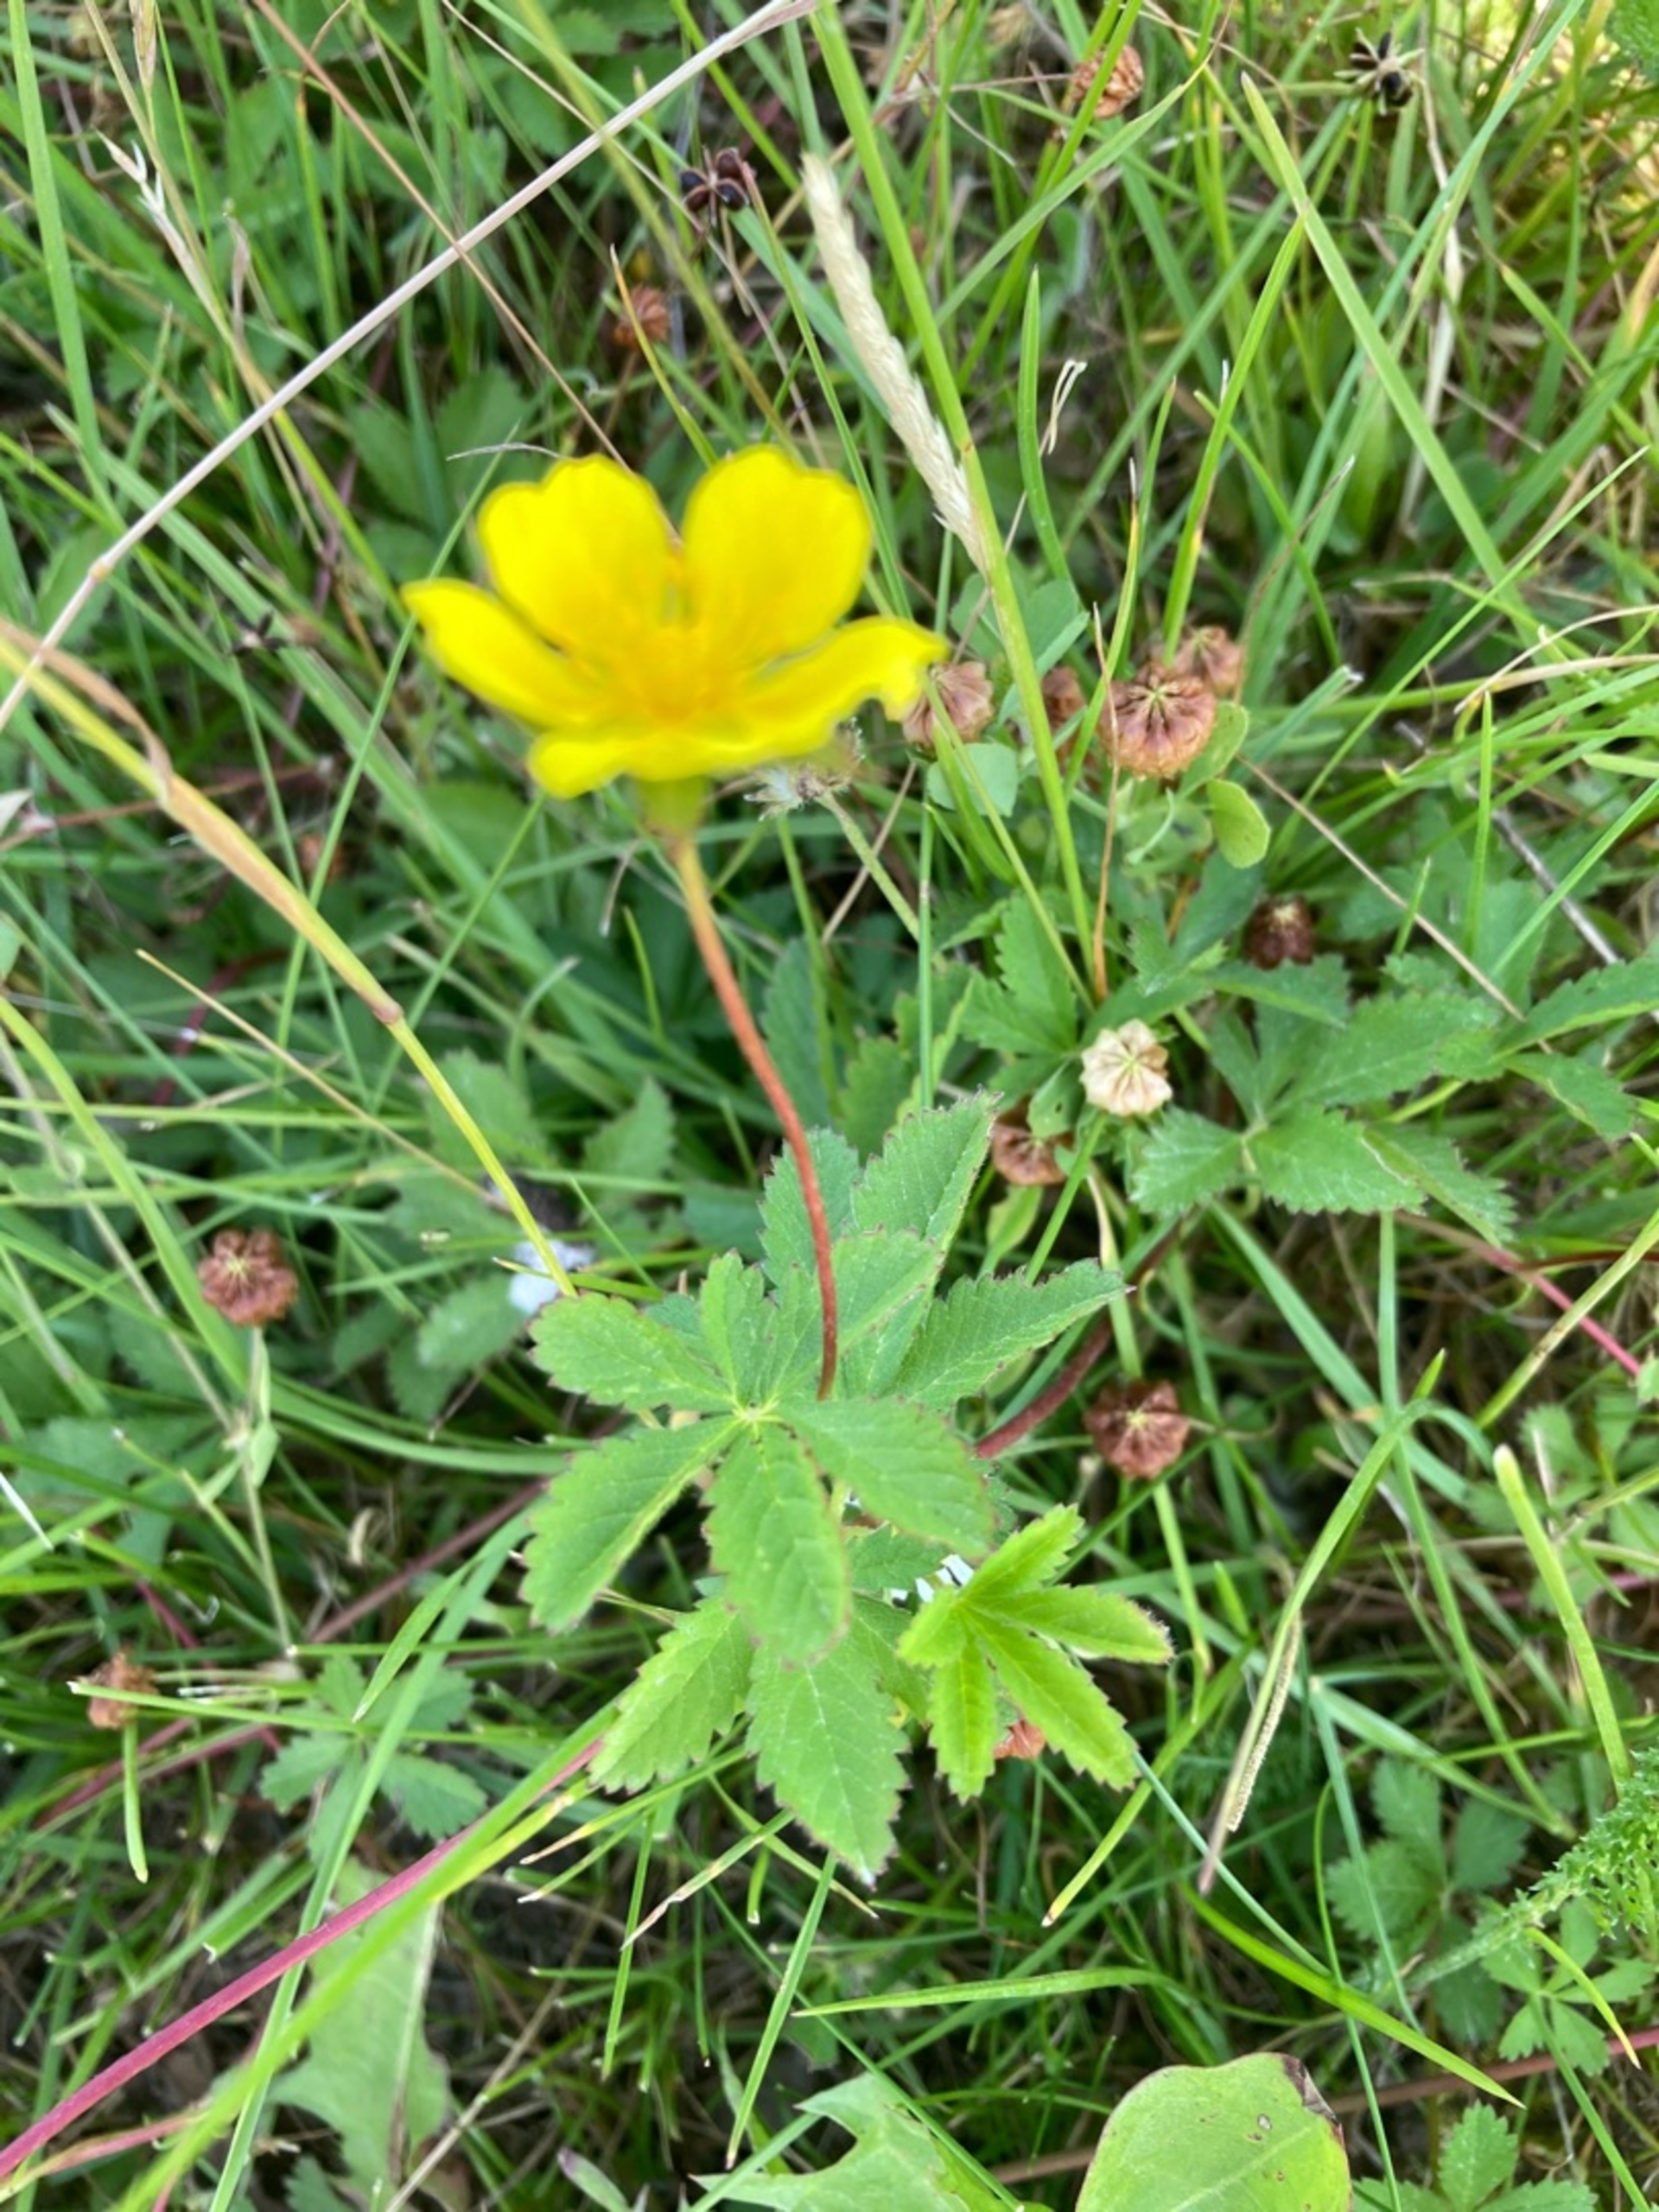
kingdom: Plantae
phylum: Tracheophyta
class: Magnoliopsida
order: Rosales
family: Rosaceae
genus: Potentilla
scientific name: Potentilla reptans
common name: Krybende potentil
